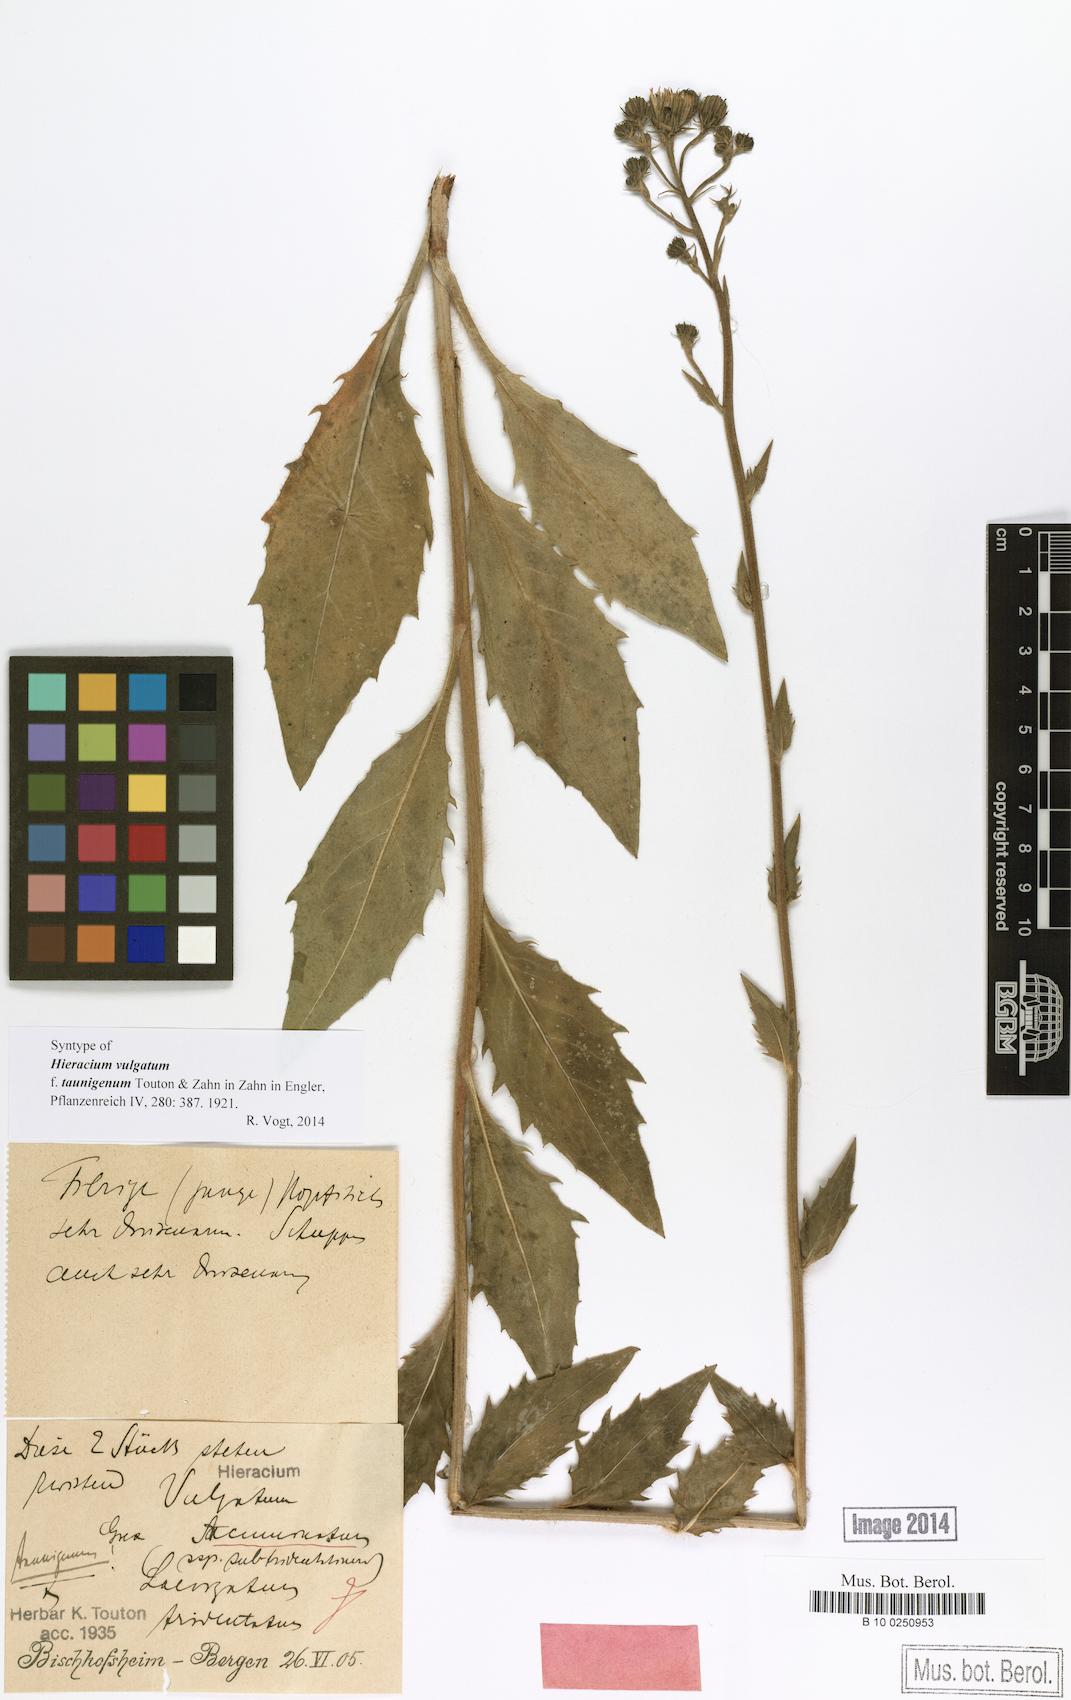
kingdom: Plantae
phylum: Tracheophyta
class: Magnoliopsida
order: Asterales
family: Asteraceae
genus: Hieracium
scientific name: Hieracium vulgatum
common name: Common hawkweed
